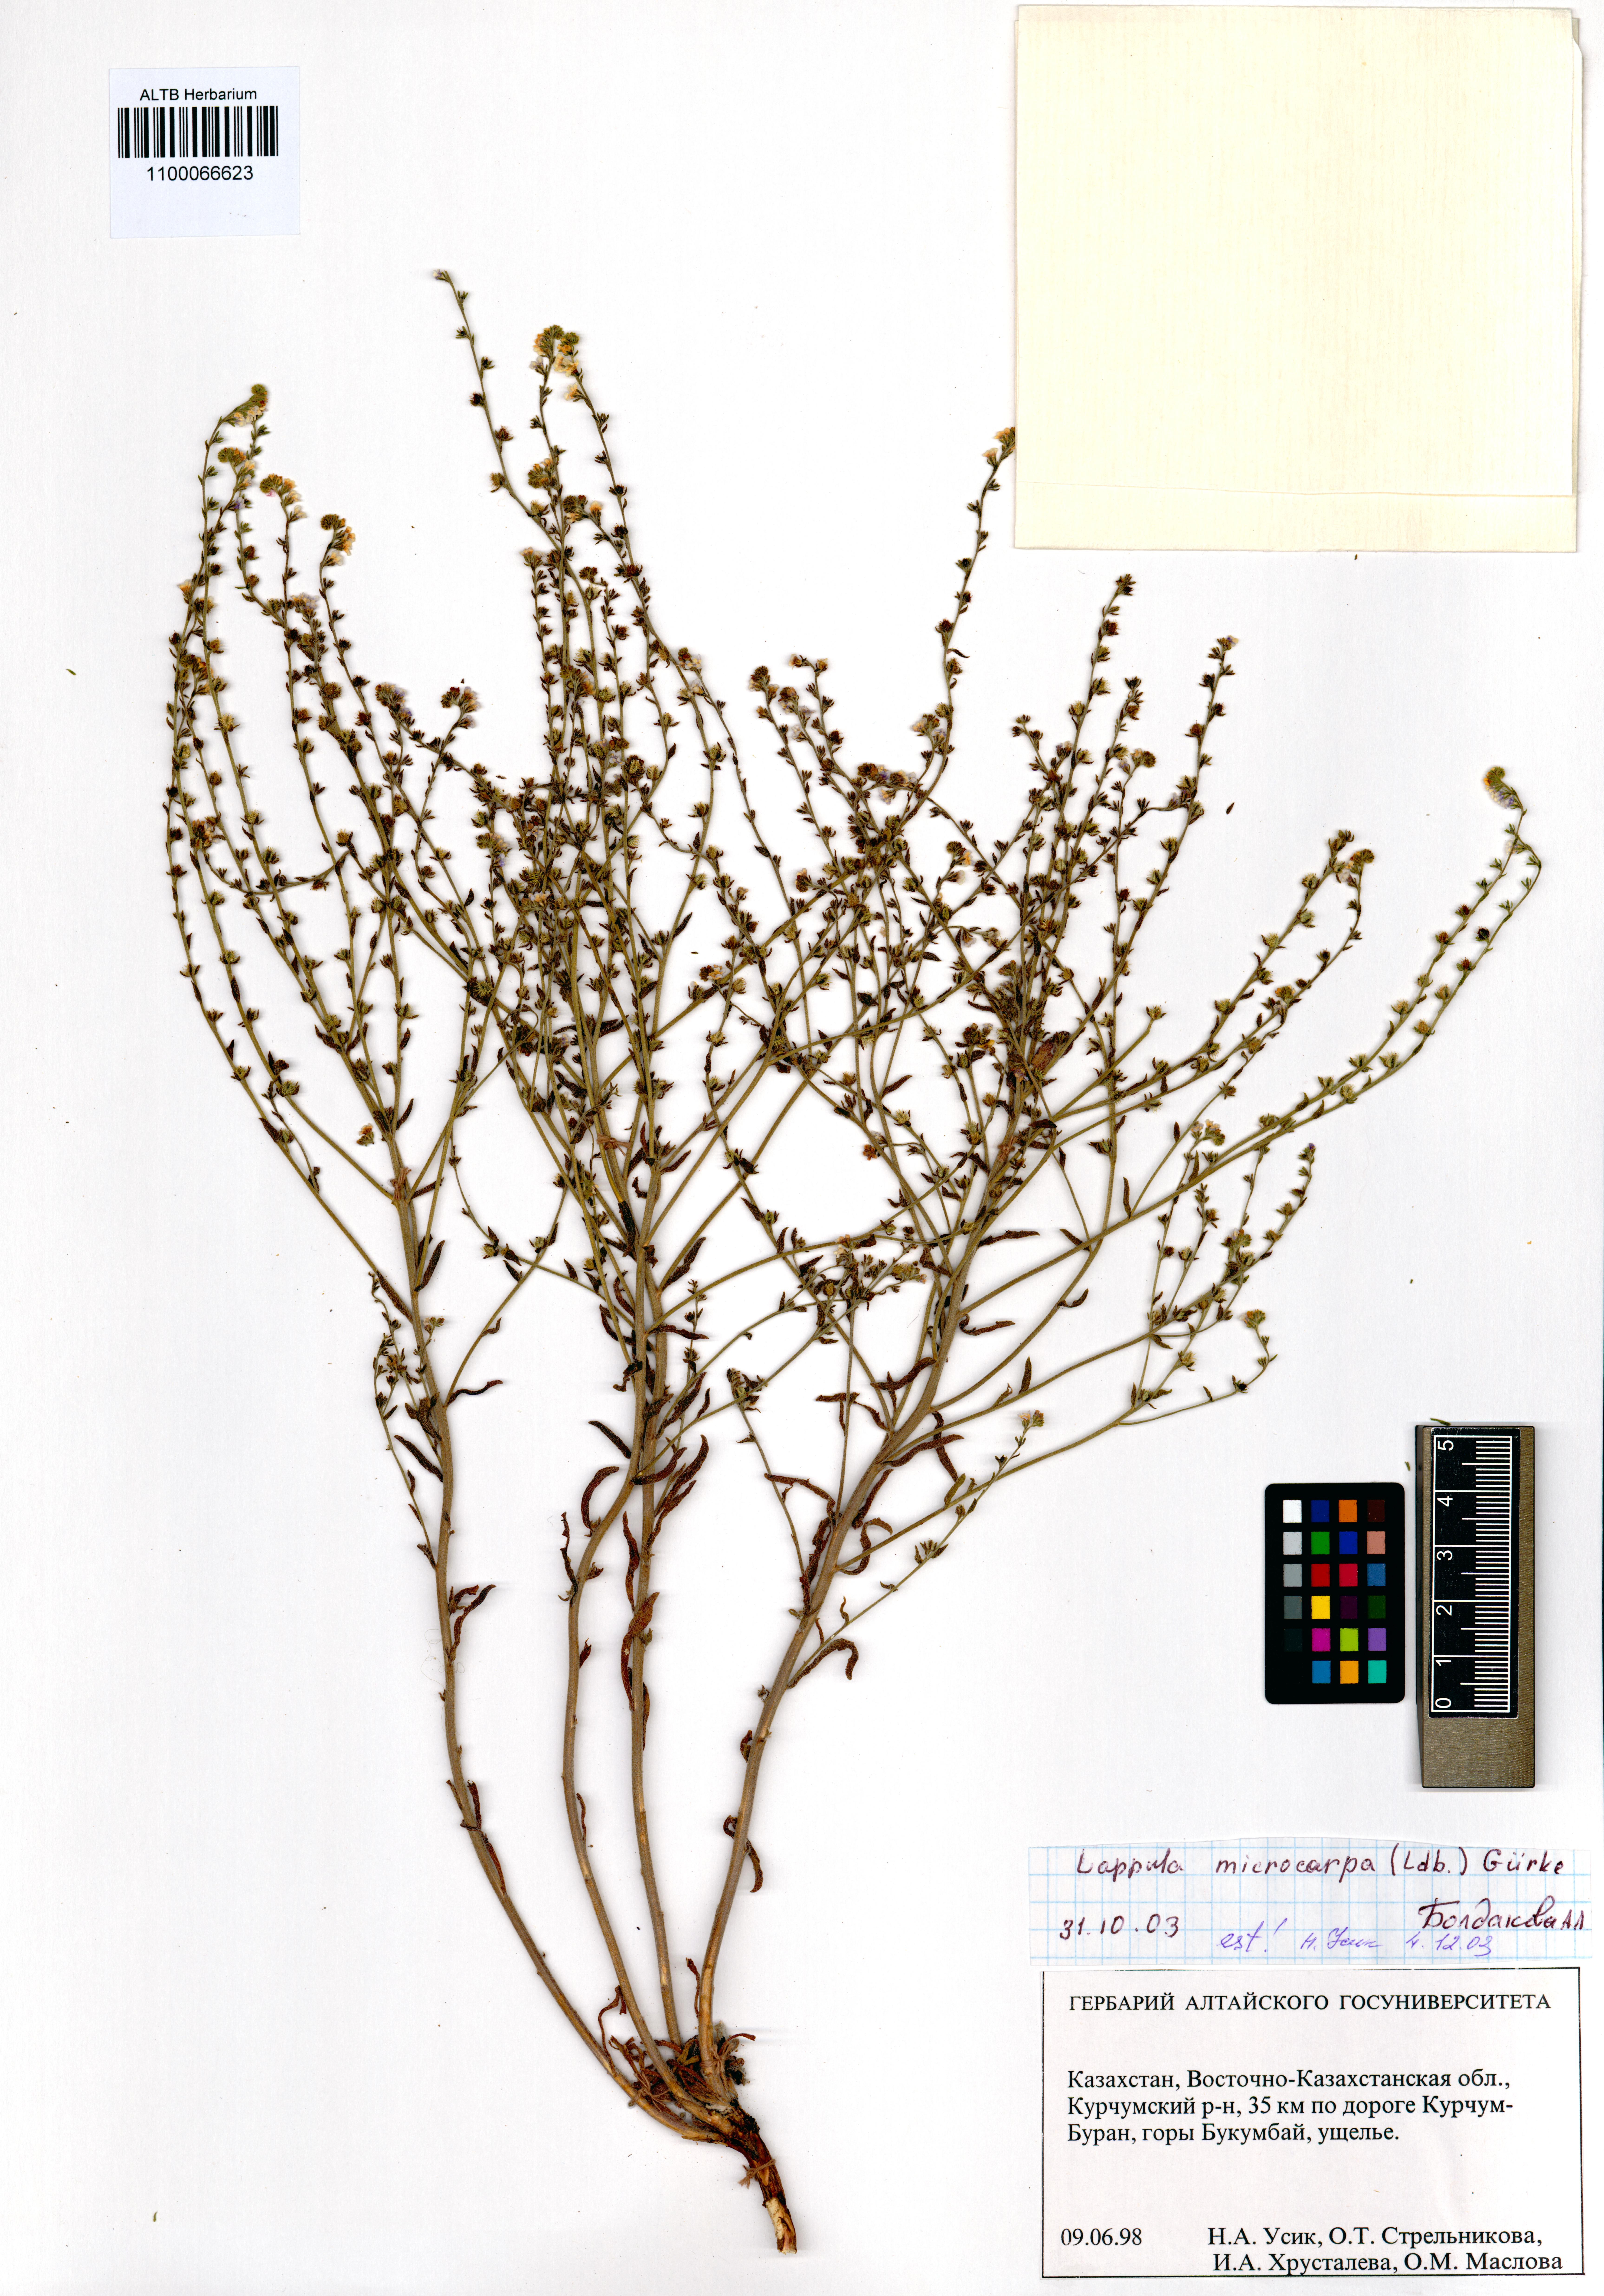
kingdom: Plantae
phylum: Tracheophyta
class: Magnoliopsida
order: Boraginales
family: Boraginaceae
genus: Lappula
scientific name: Lappula microcarpa
